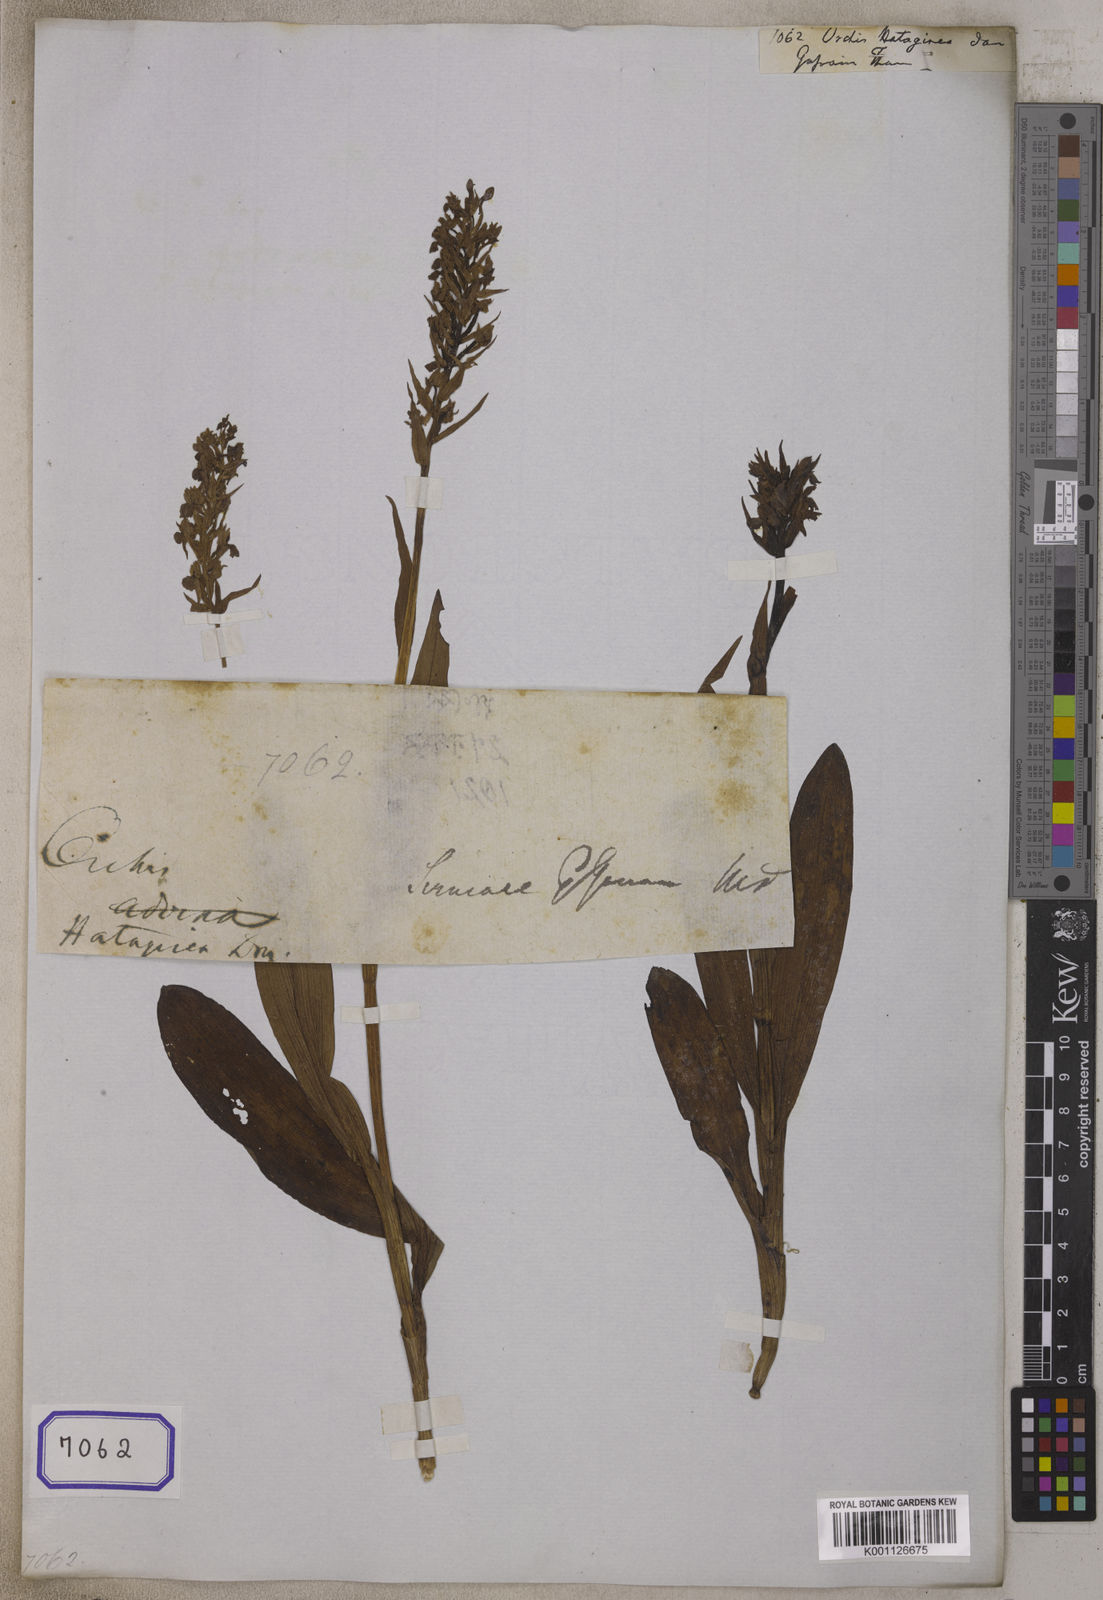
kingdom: Plantae
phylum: Tracheophyta
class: Liliopsida
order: Asparagales
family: Orchidaceae
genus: Dactylorhiza
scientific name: Dactylorhiza hatagirea
